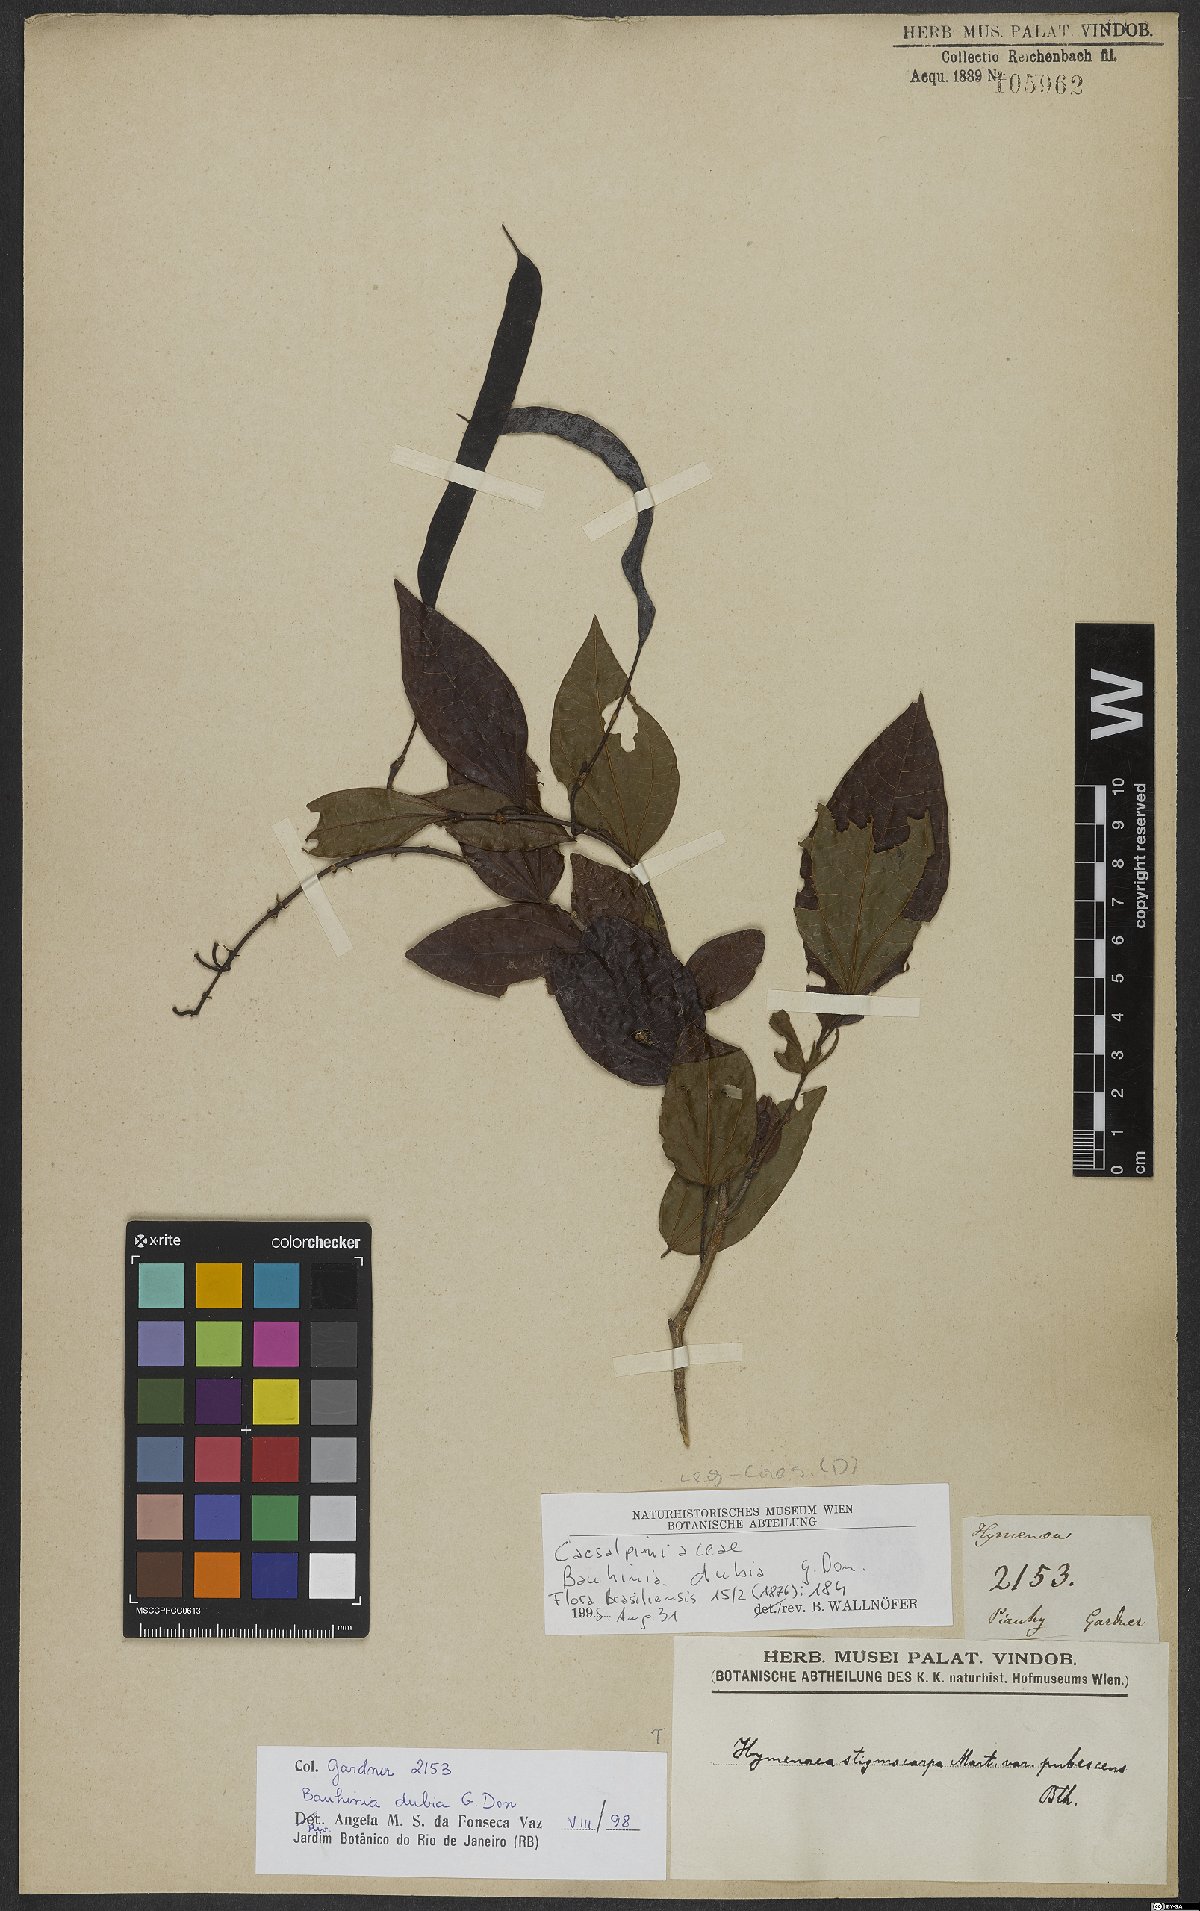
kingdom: Plantae
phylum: Tracheophyta
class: Magnoliopsida
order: Fabales
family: Fabaceae
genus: Bauhinia
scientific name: Bauhinia dubia
